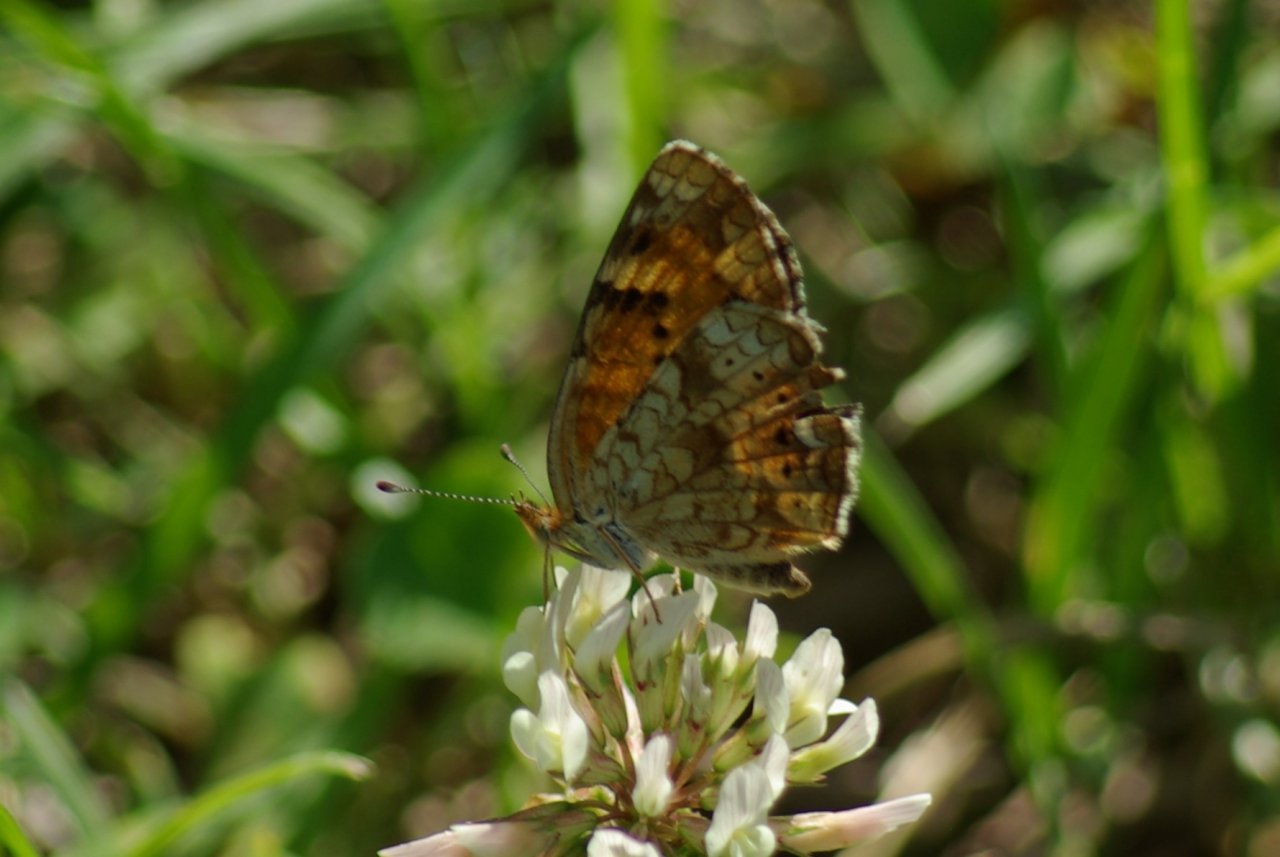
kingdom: Animalia
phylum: Arthropoda
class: Insecta
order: Lepidoptera
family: Nymphalidae
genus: Phyciodes
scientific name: Phyciodes batesii
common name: Tawny Crescent
